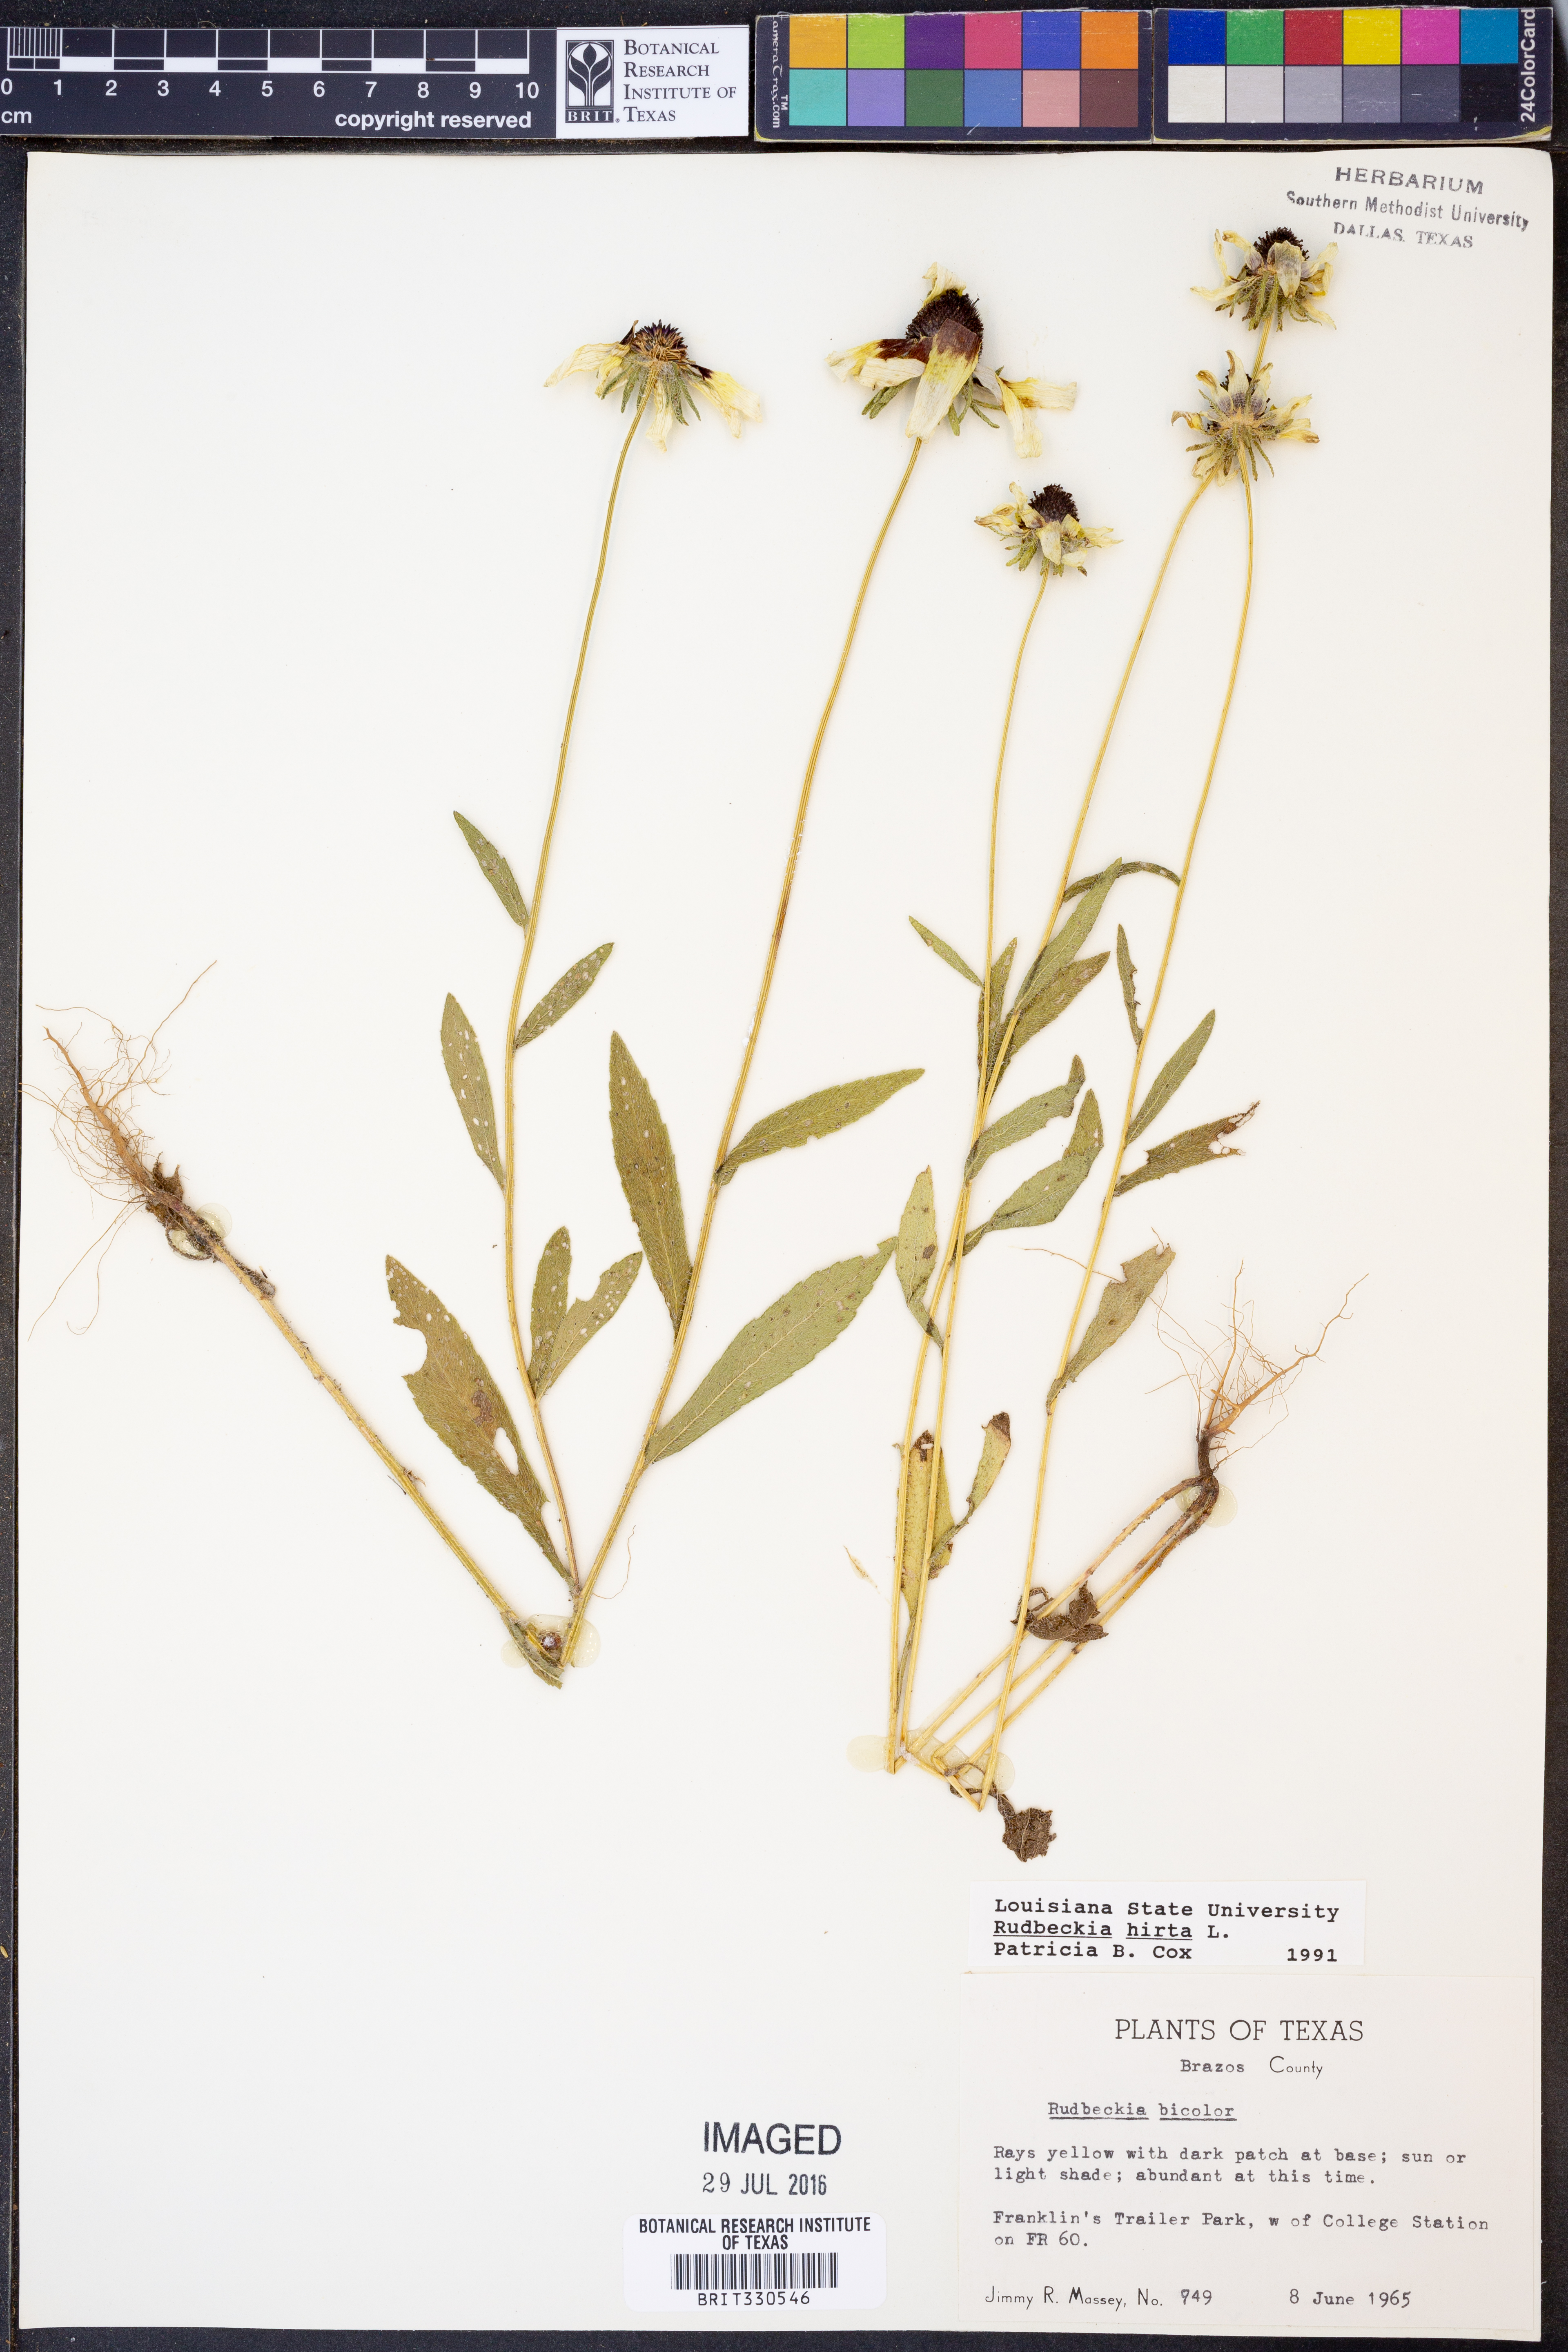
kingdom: Plantae
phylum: Tracheophyta
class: Magnoliopsida
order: Asterales
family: Asteraceae
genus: Rudbeckia
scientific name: Rudbeckia hirta
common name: Black-eyed-susan
